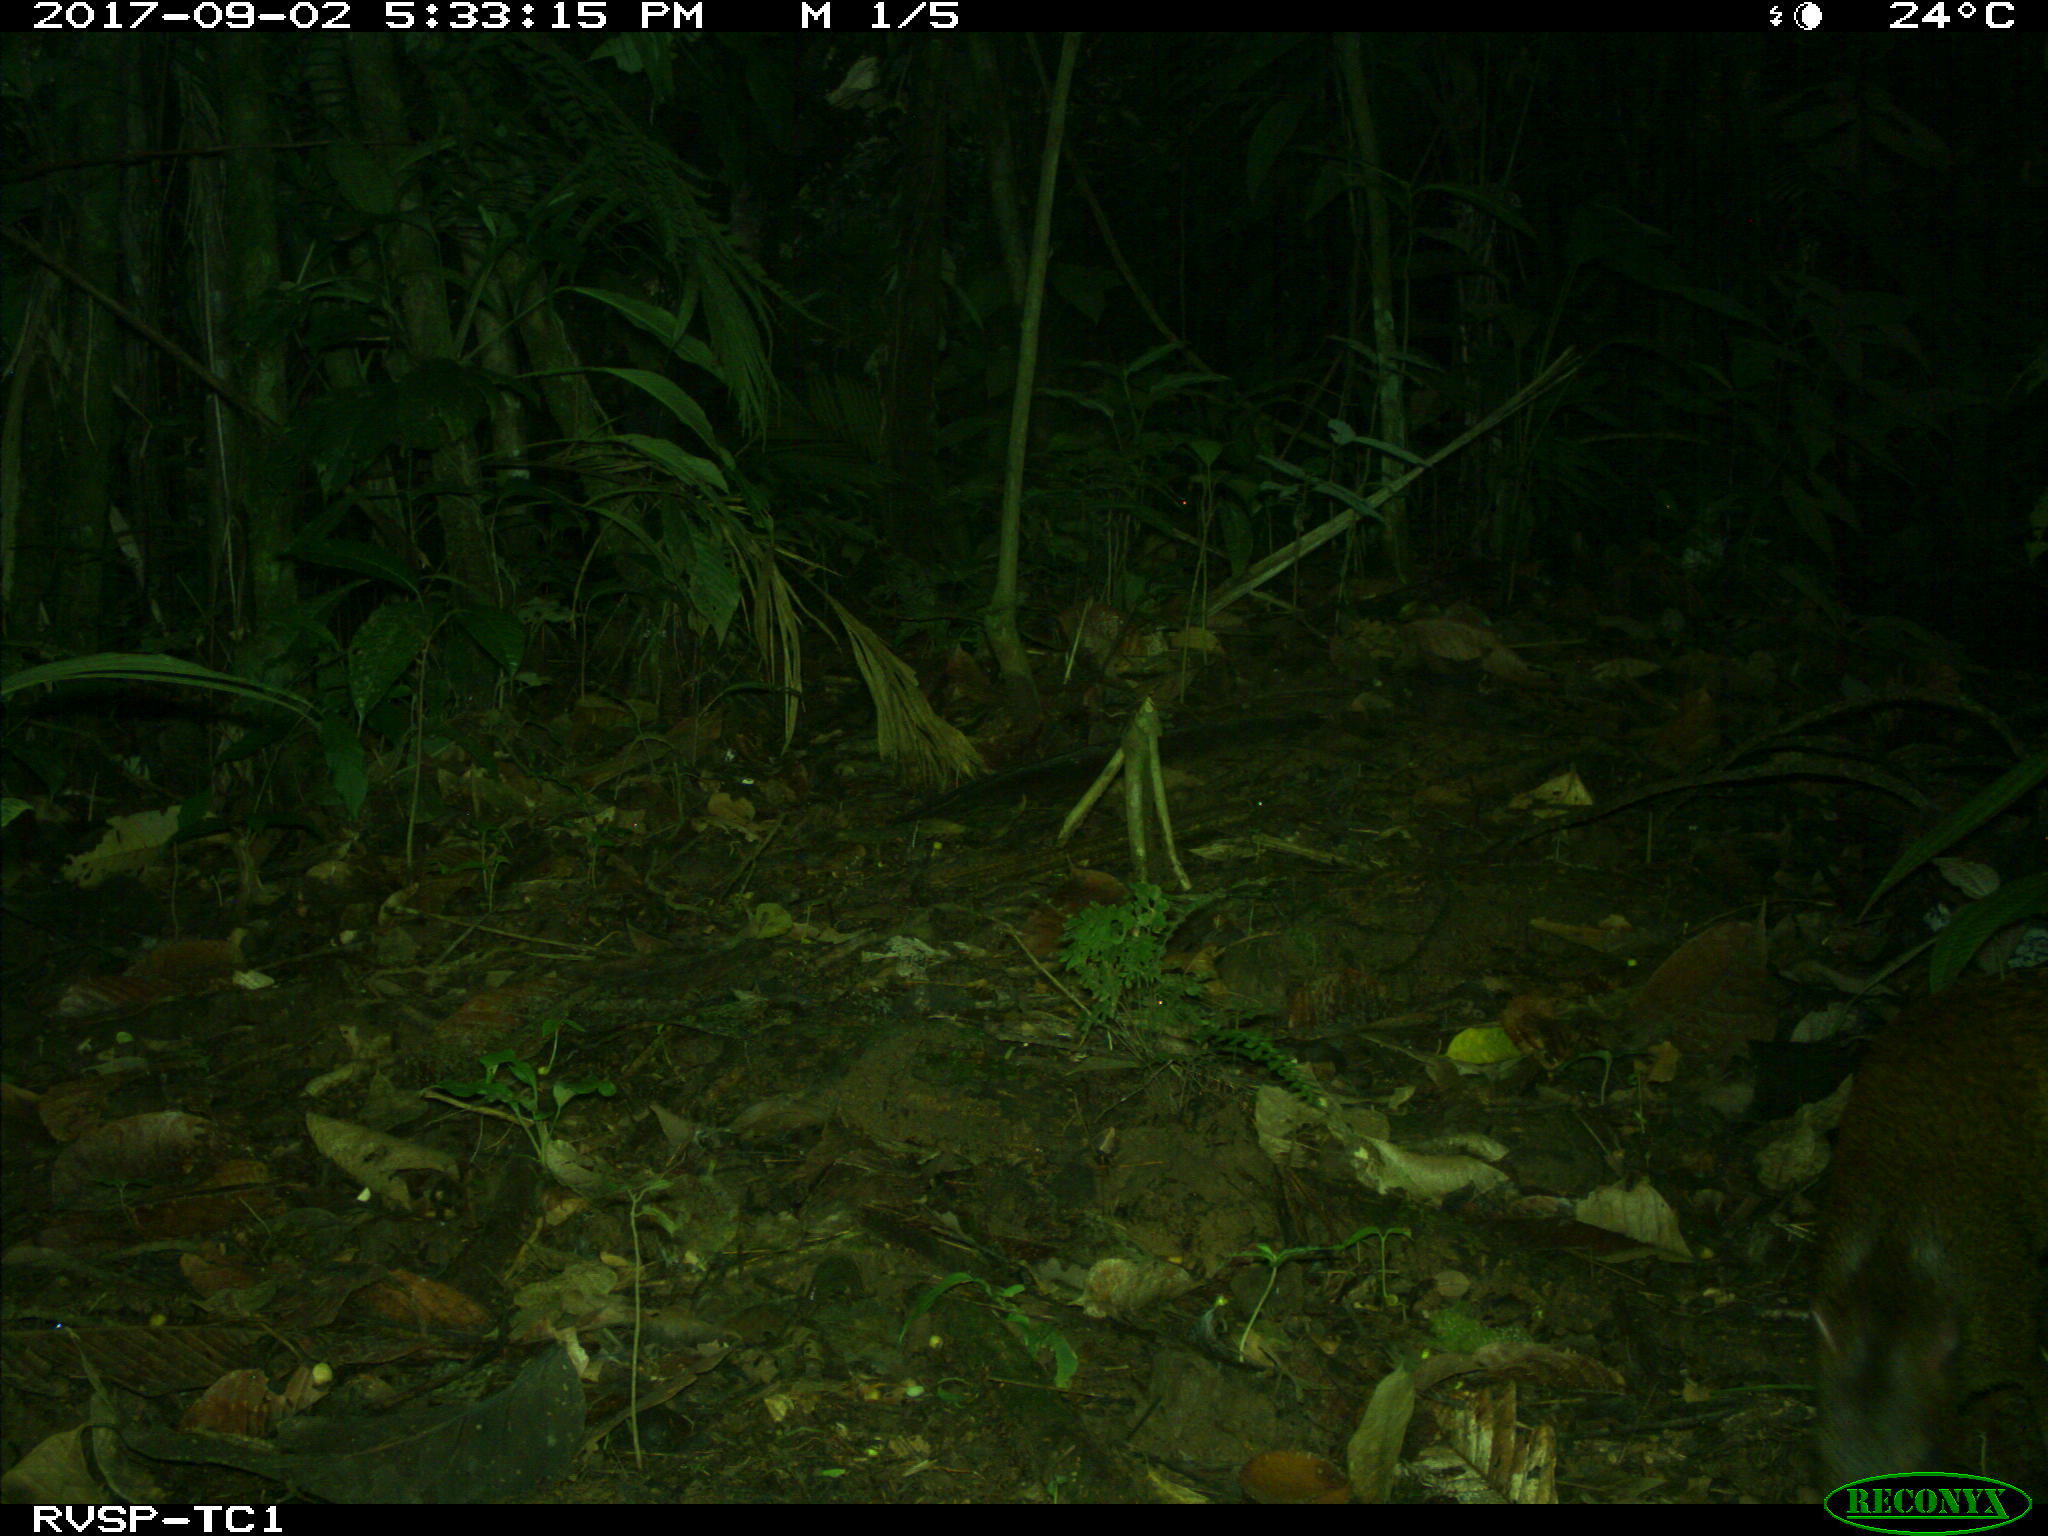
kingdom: Animalia
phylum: Chordata
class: Mammalia
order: Rodentia
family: Dasyproctidae
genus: Dasyprocta
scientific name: Dasyprocta punctata
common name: Central american agouti
